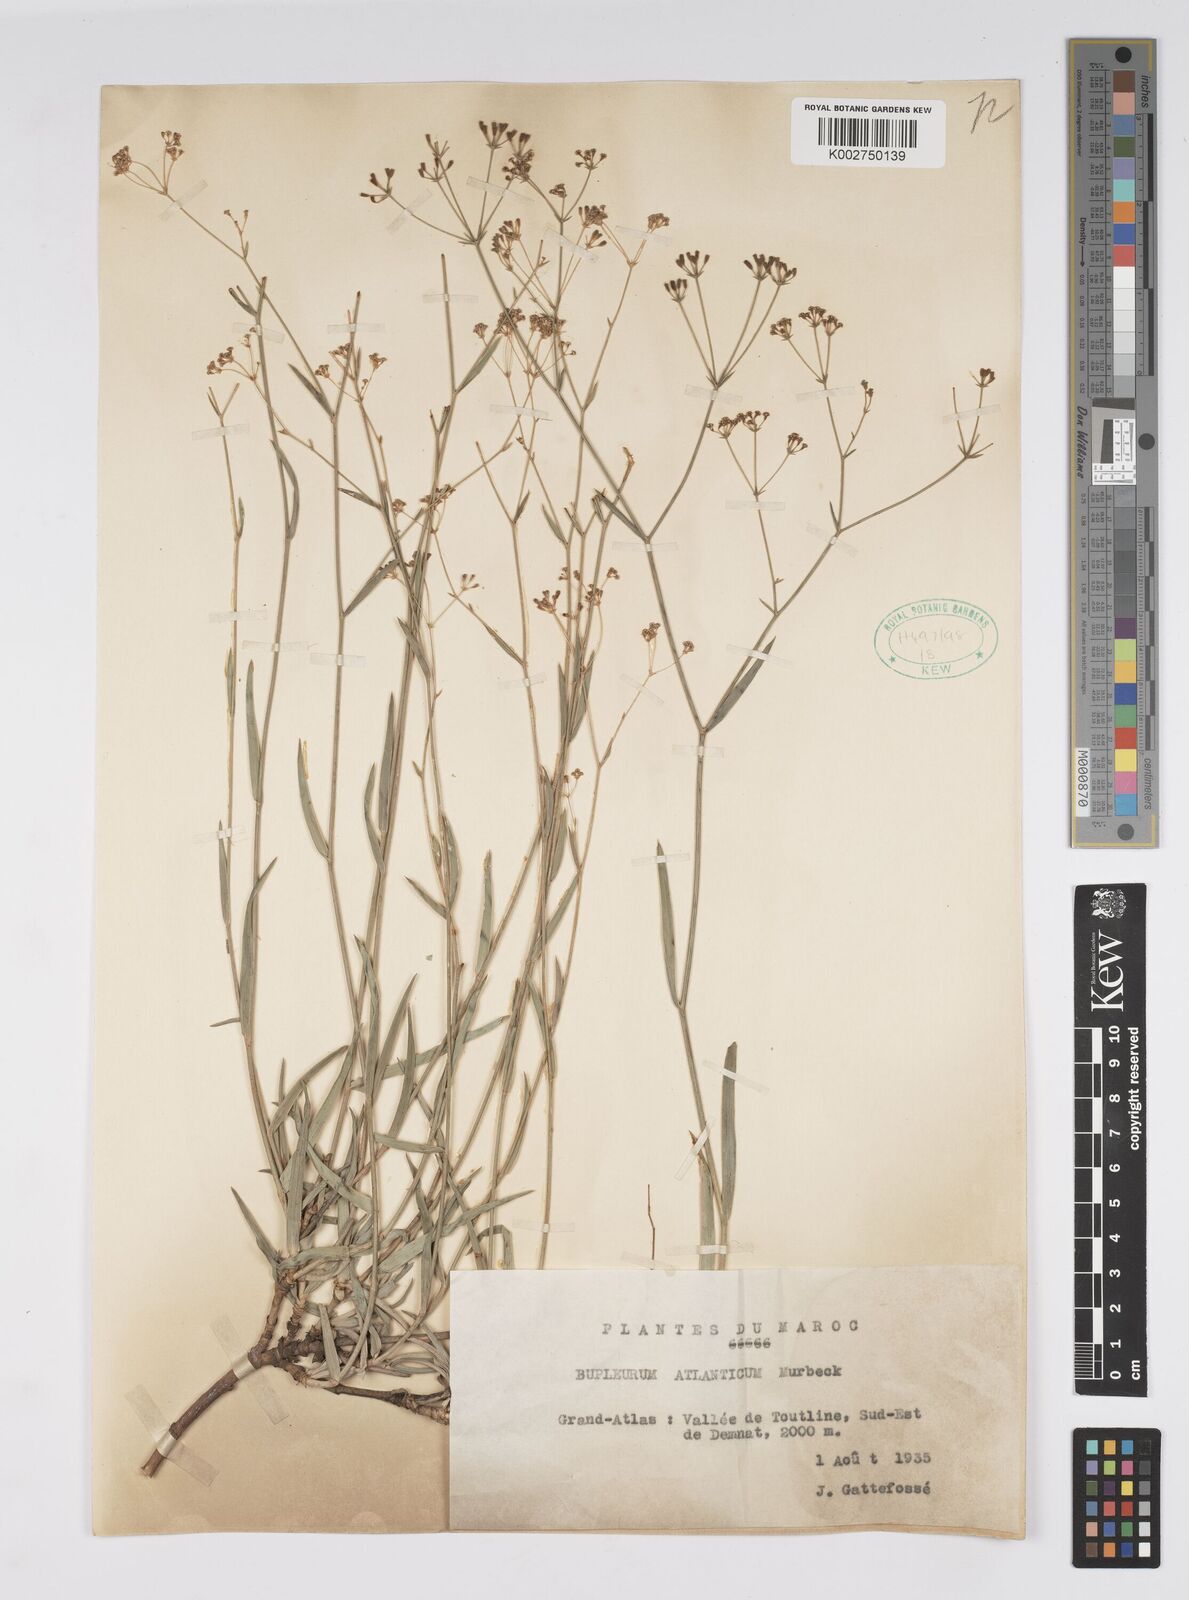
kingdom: Plantae
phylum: Tracheophyta
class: Magnoliopsida
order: Apiales
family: Apiaceae
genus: Bupleurum
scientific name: Bupleurum oligactis
